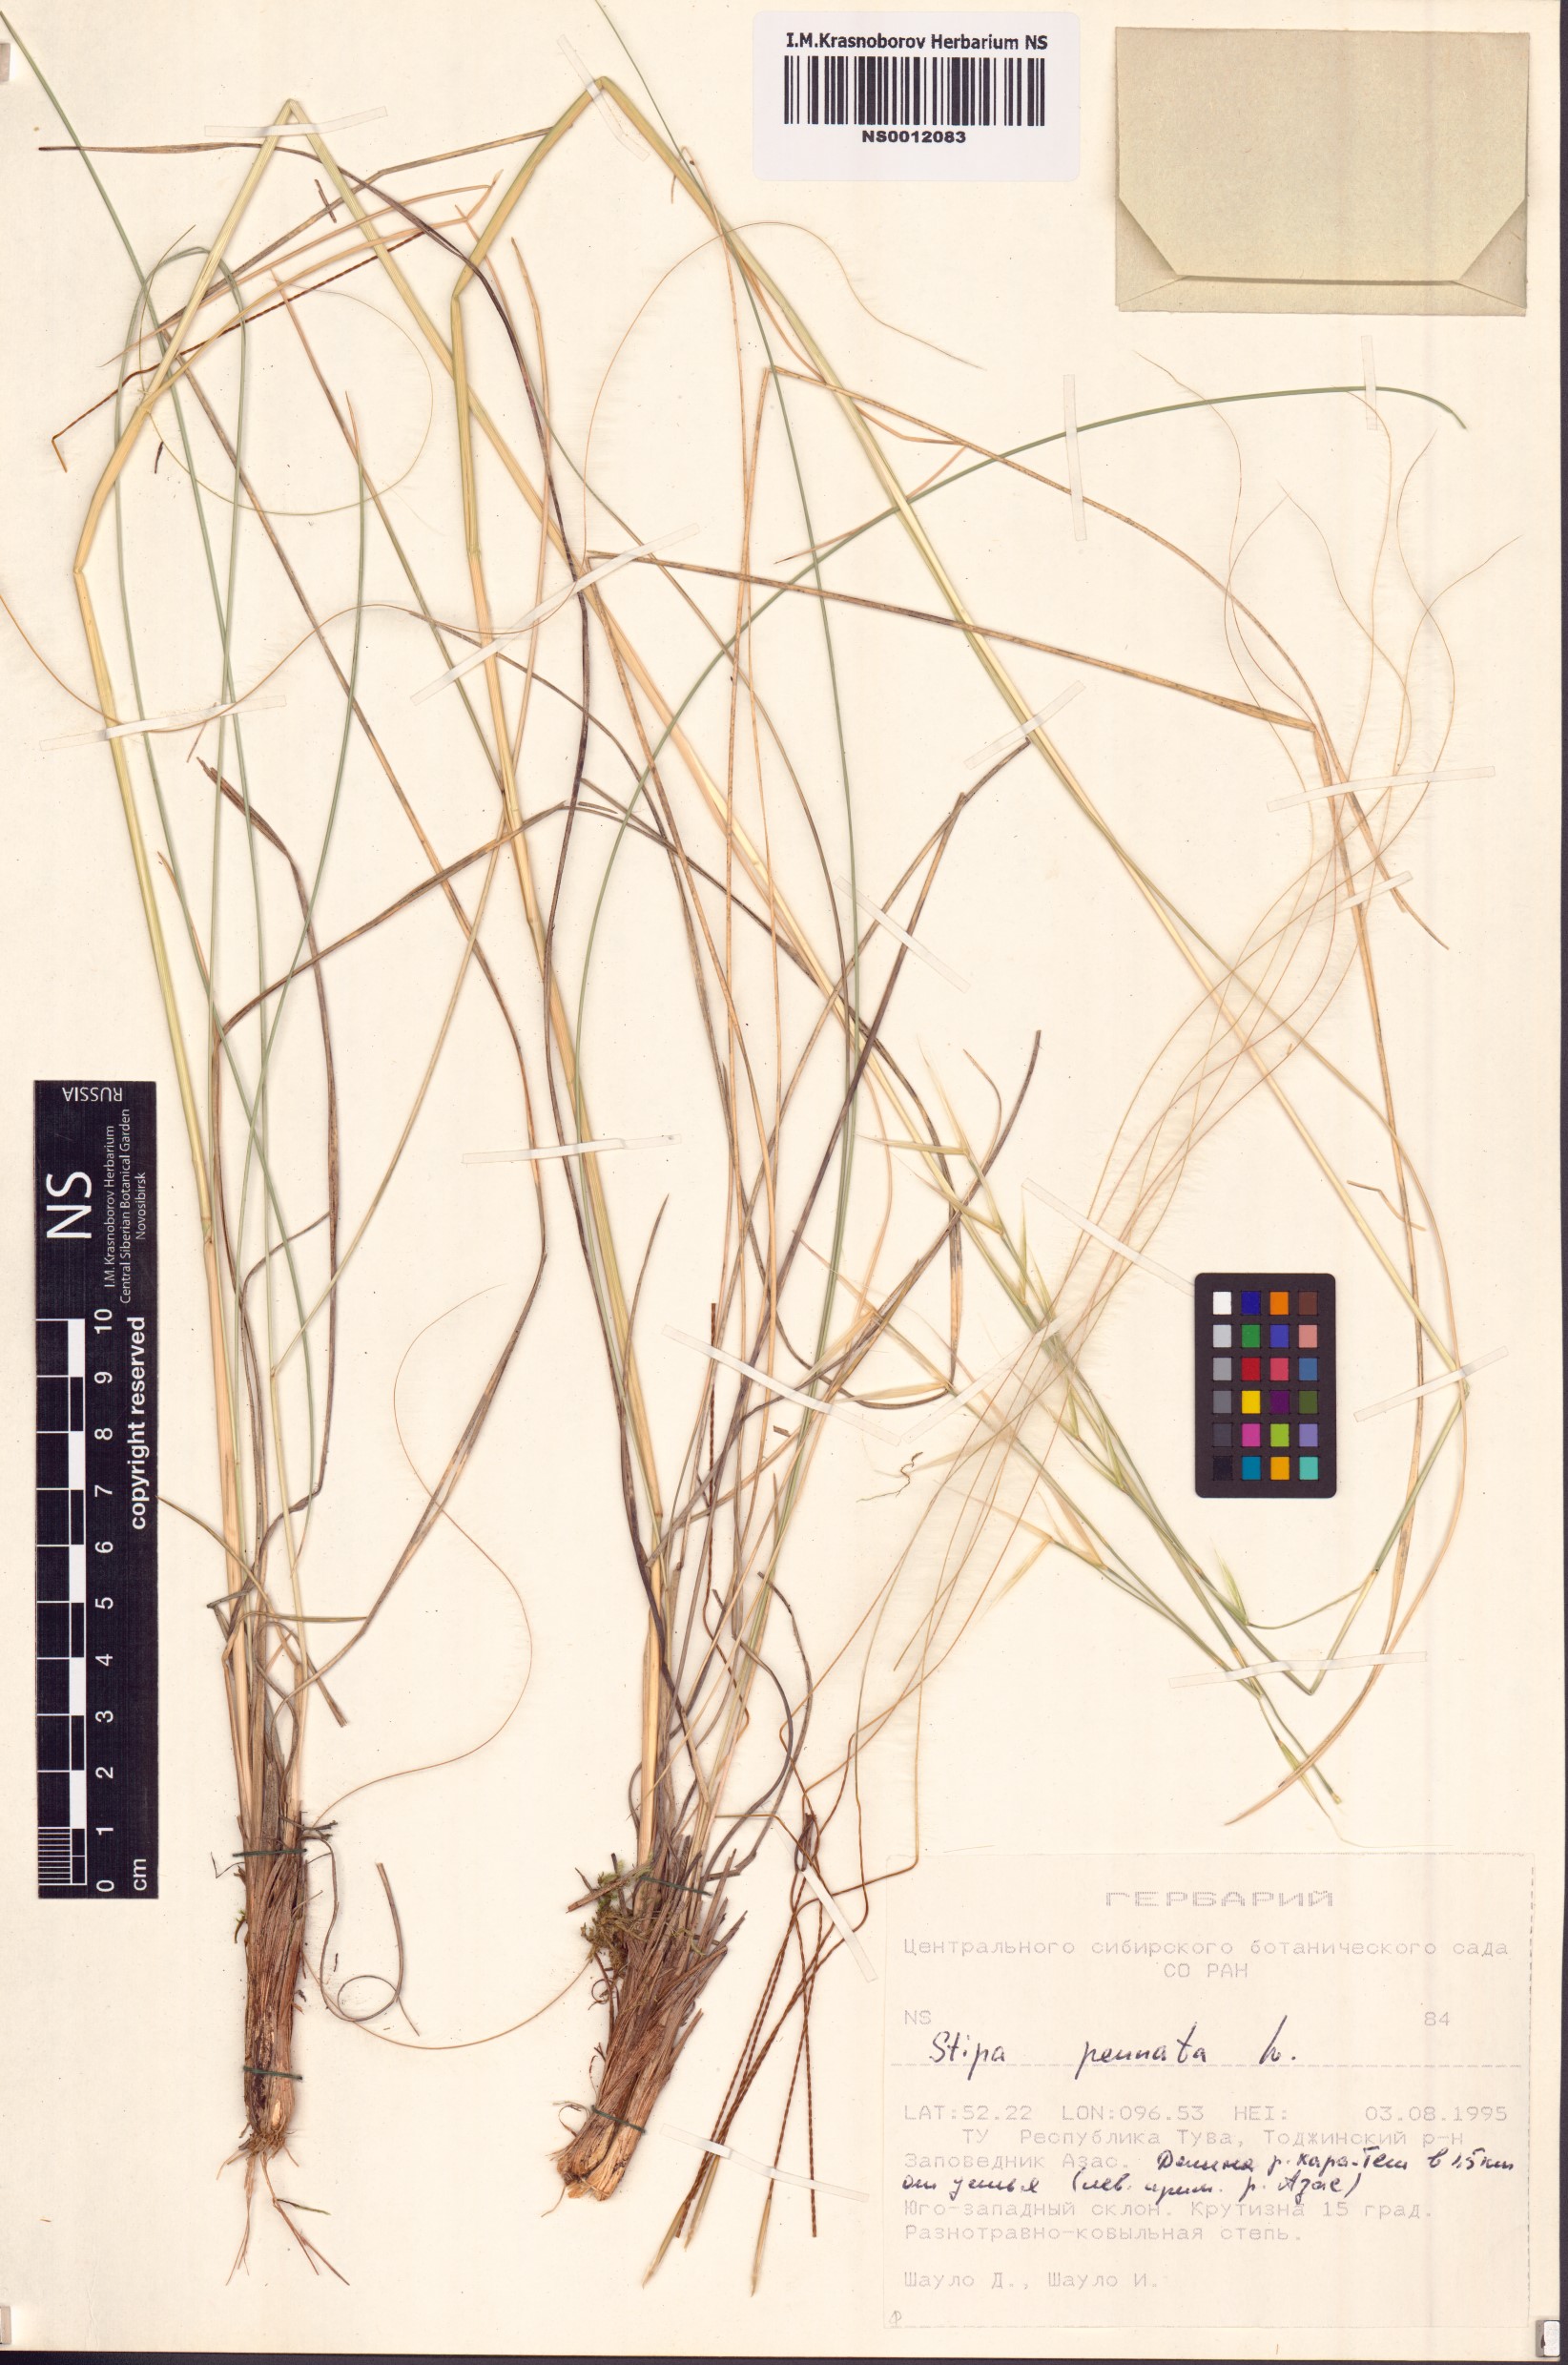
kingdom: Plantae
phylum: Tracheophyta
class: Liliopsida
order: Poales
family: Poaceae
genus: Stipa
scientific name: Stipa pennata
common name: European feather grass
